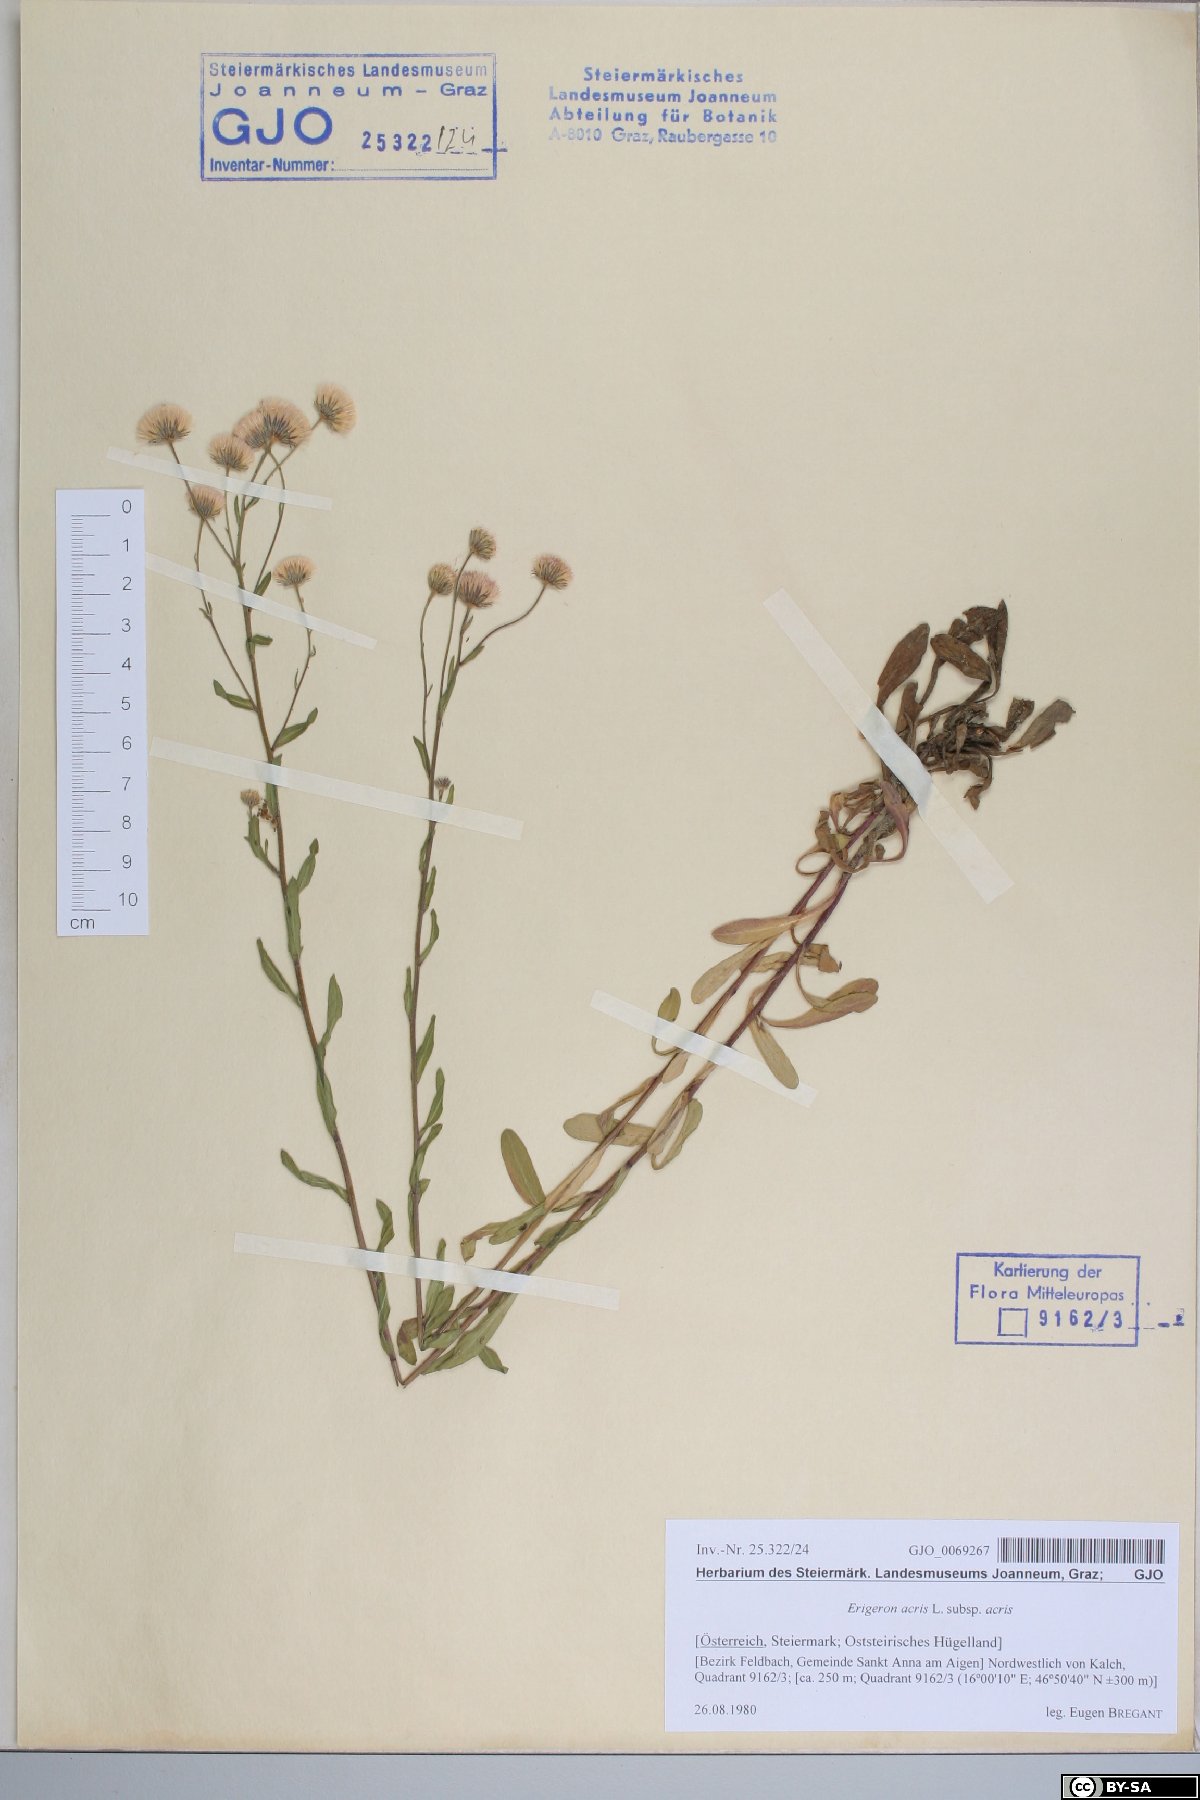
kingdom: Plantae
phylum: Tracheophyta
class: Magnoliopsida
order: Asterales
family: Asteraceae
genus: Erigeron
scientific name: Erigeron muralis
